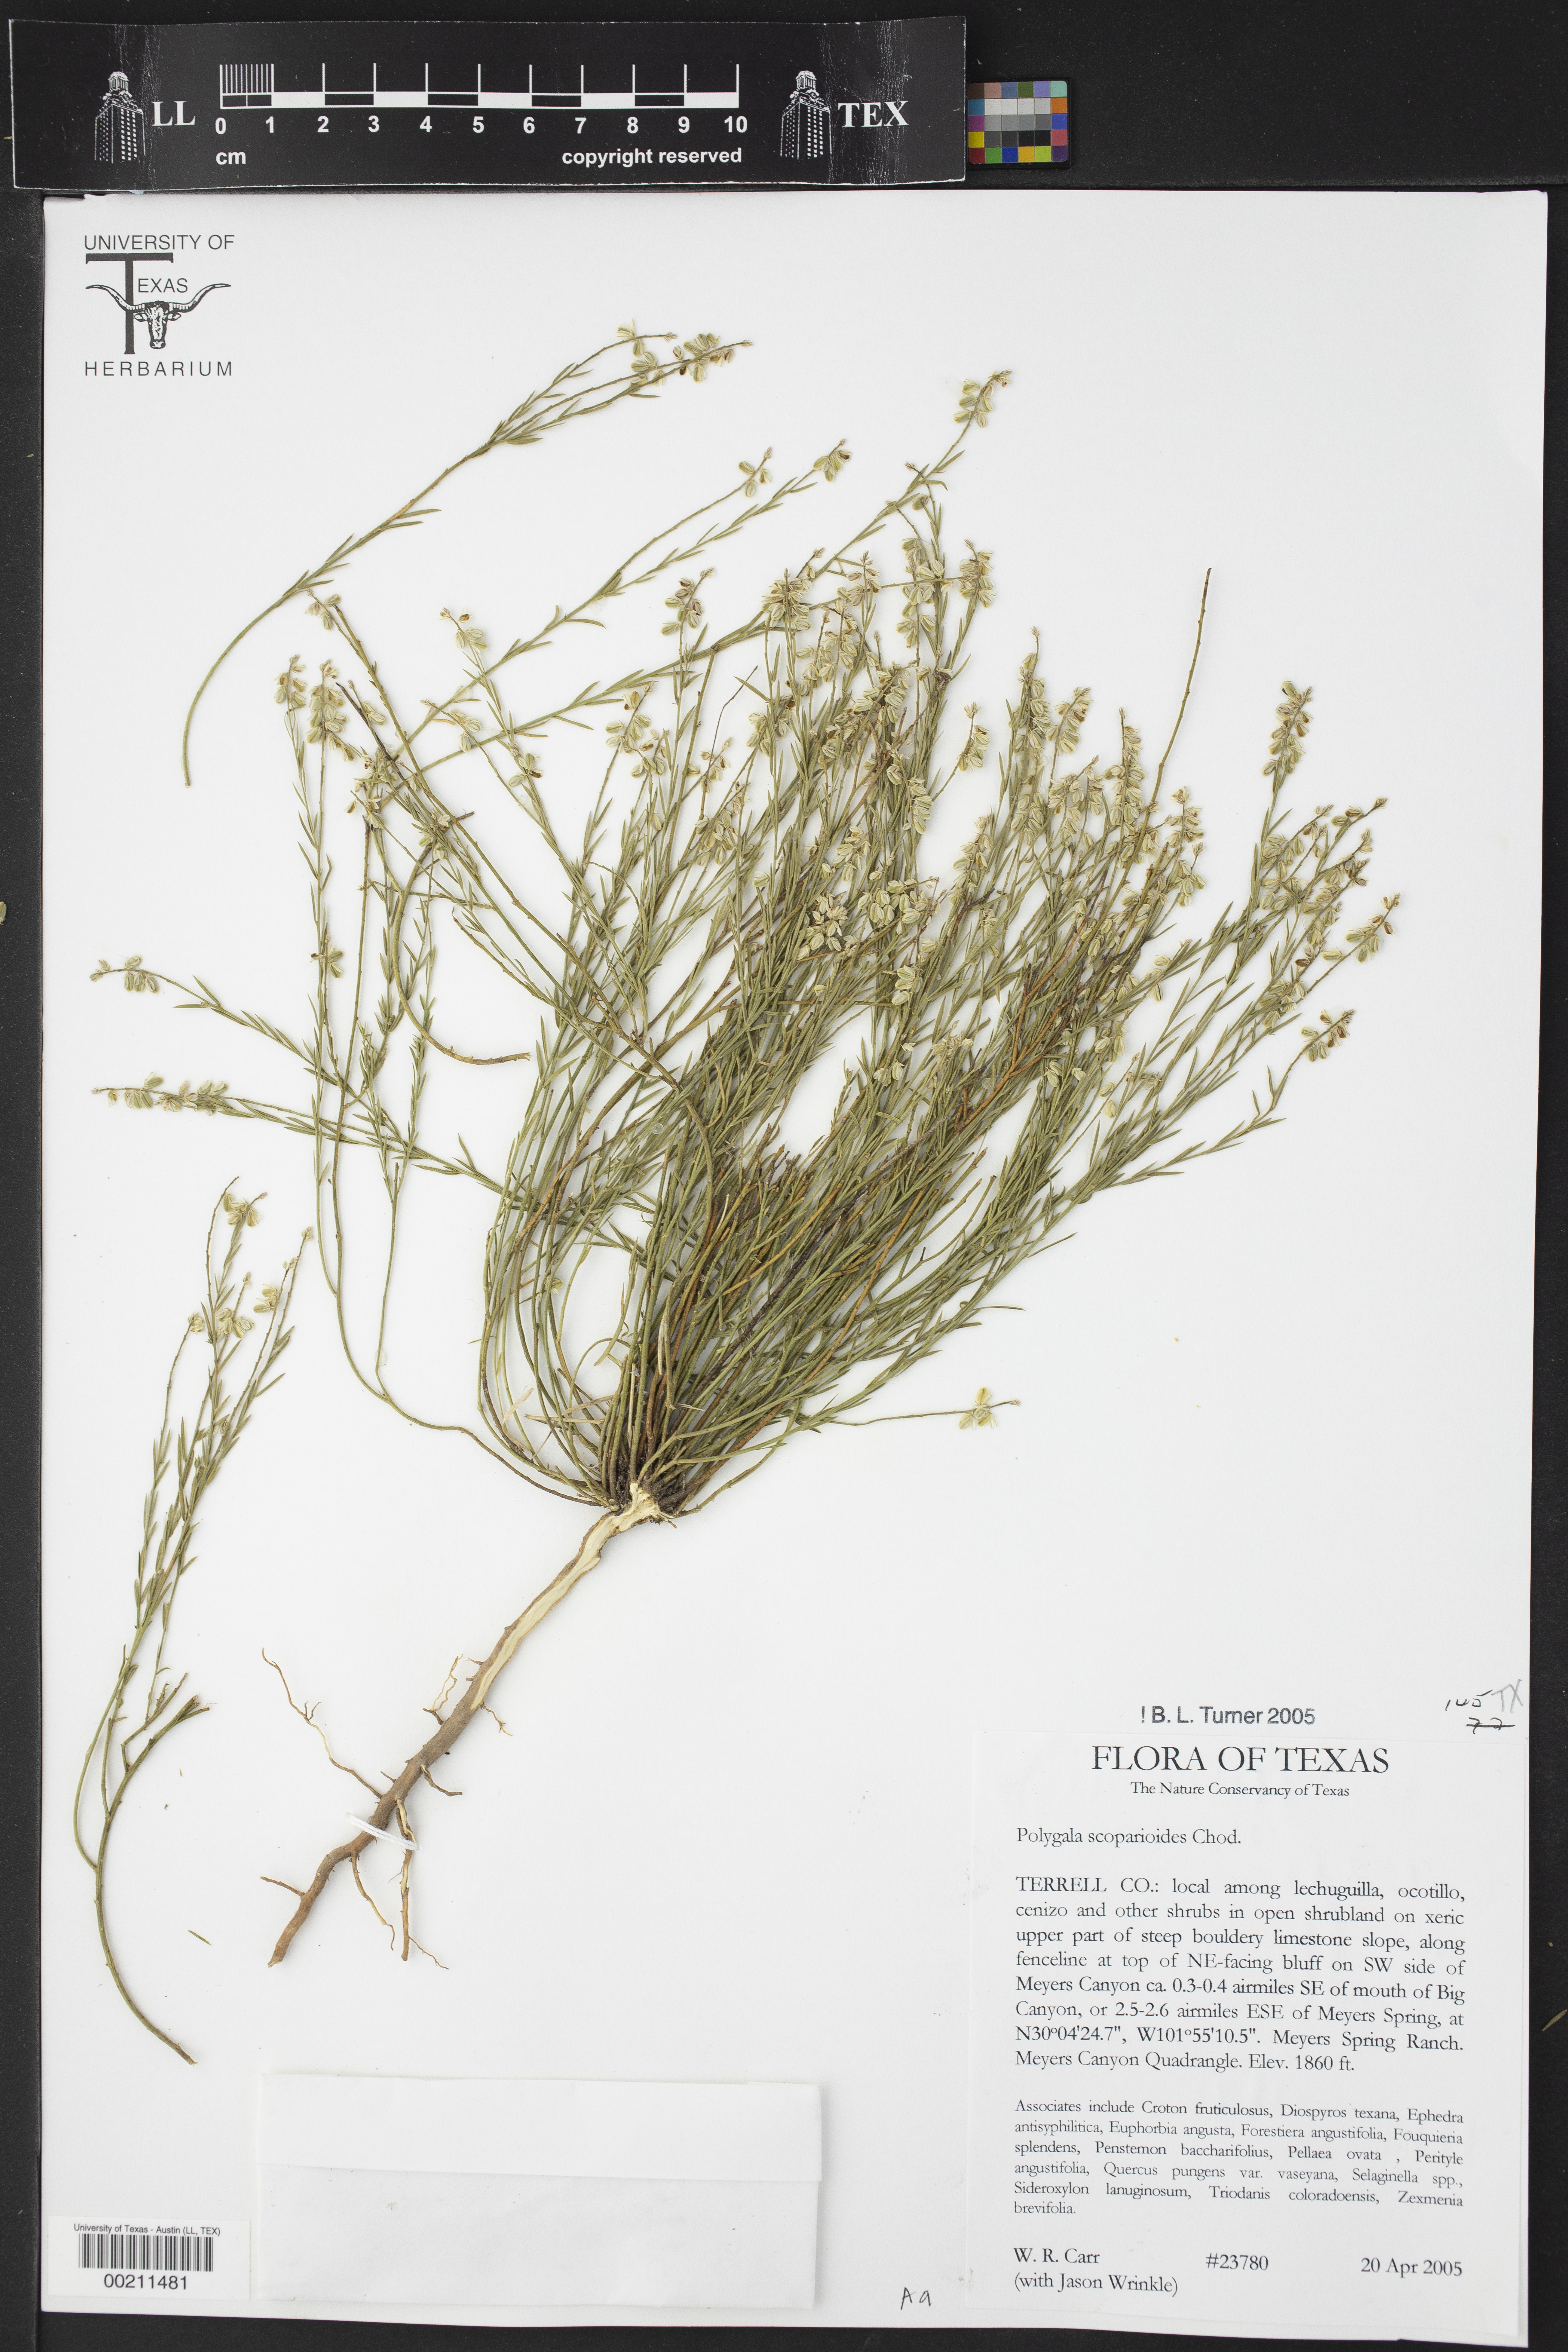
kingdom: Plantae
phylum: Tracheophyta
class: Magnoliopsida
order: Fabales
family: Polygalaceae
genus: Polygala
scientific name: Polygala scoparioides
